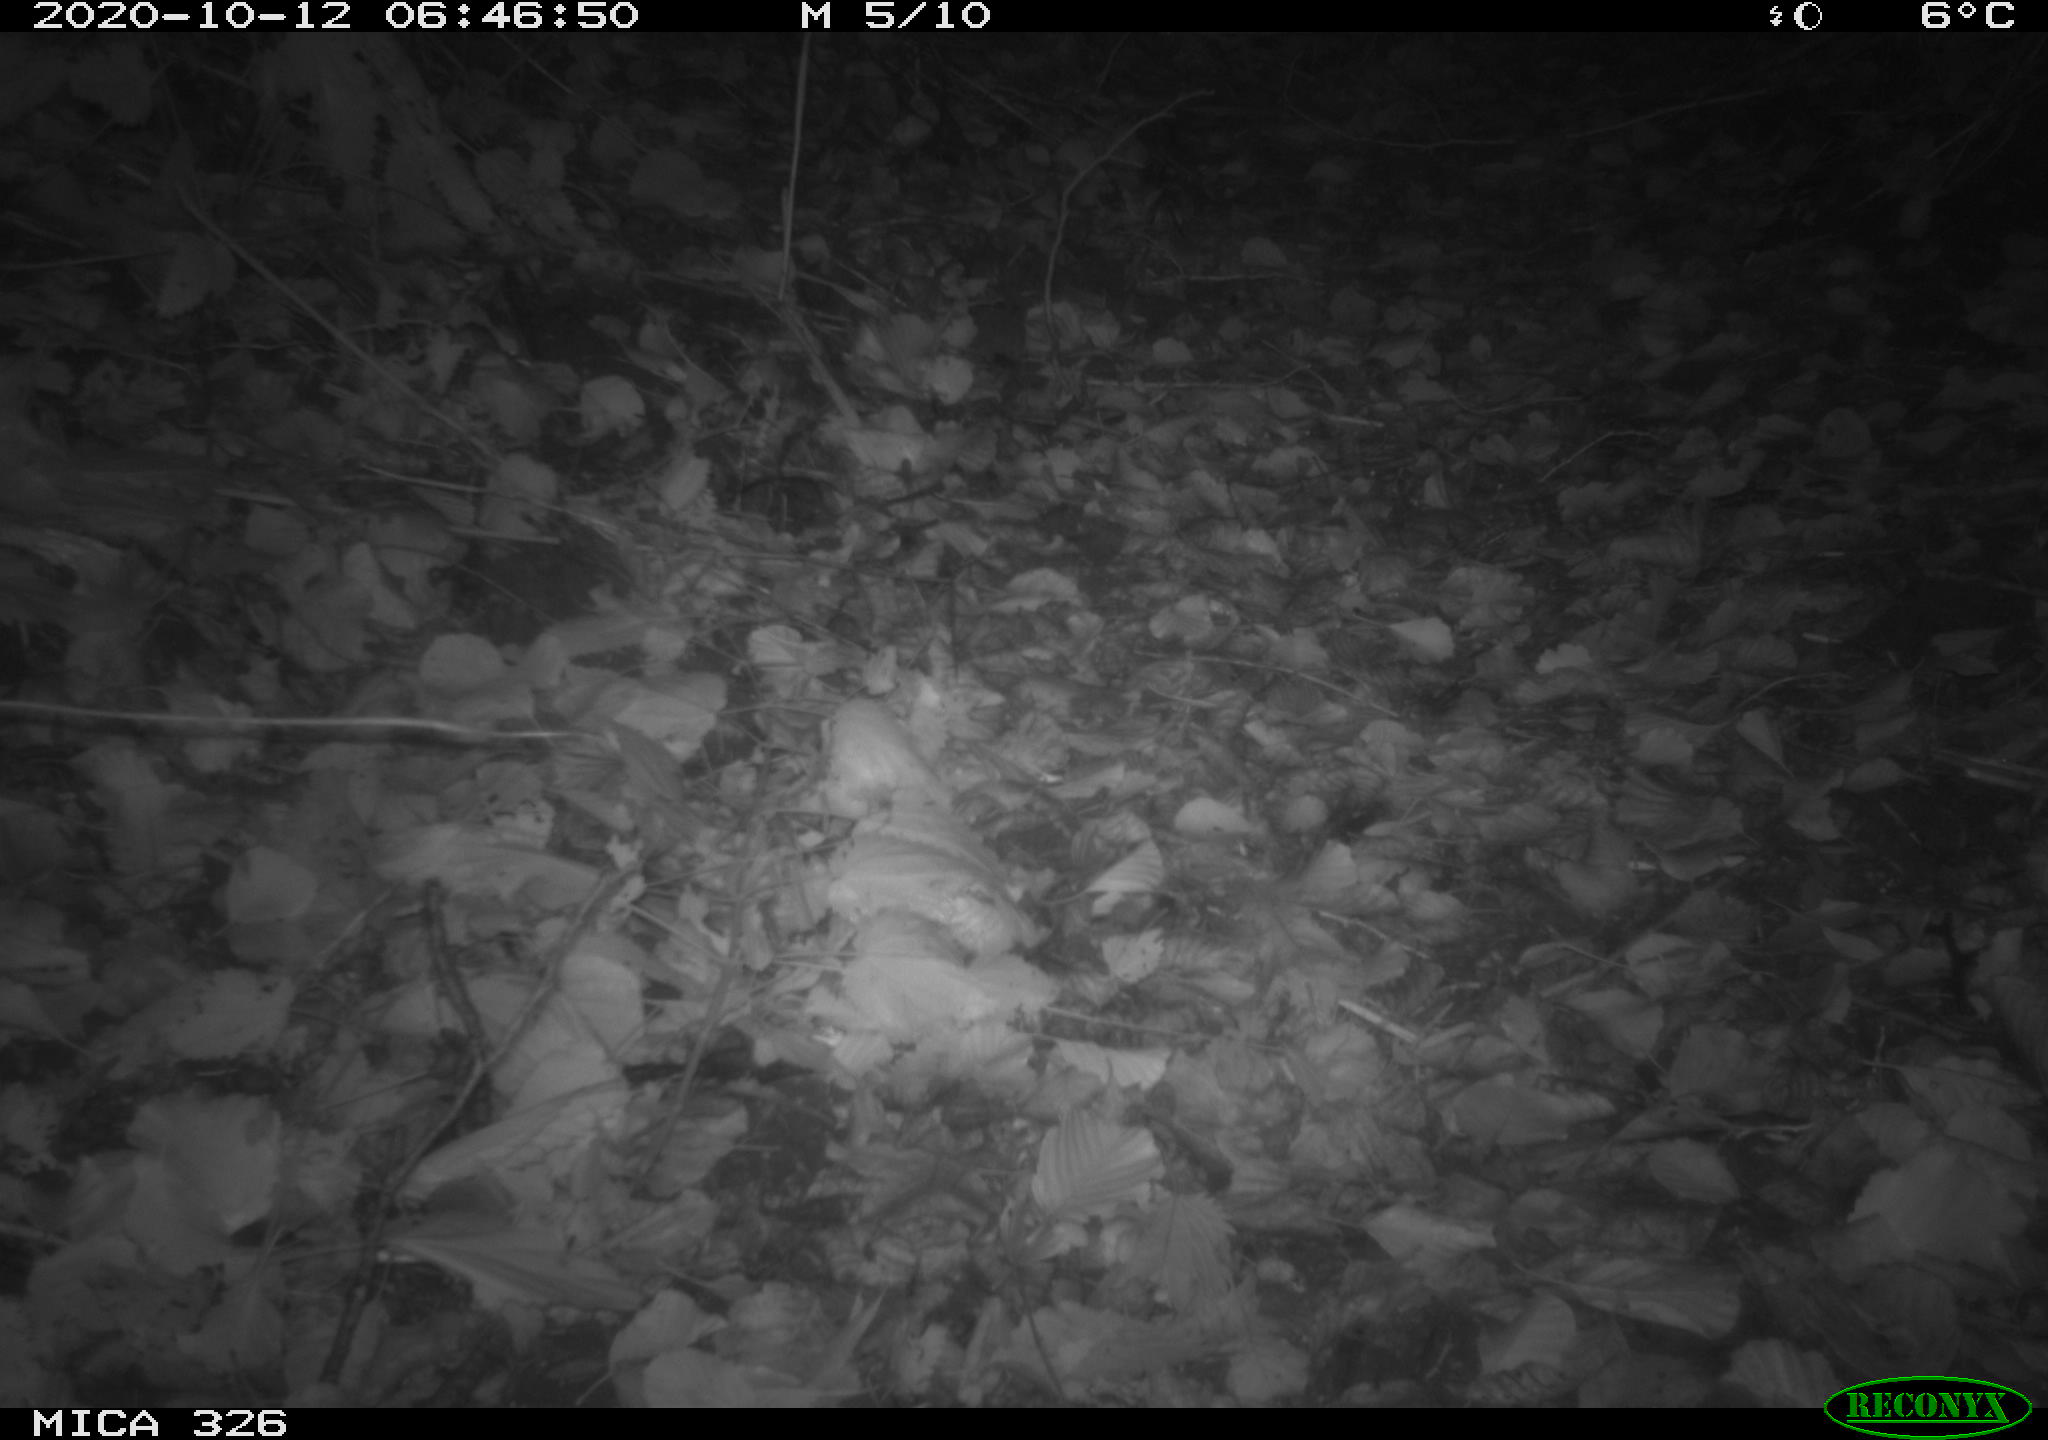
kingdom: Animalia
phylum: Chordata
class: Mammalia
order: Carnivora
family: Mustelidae
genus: Lutra
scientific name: Lutra lutra
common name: European otter
